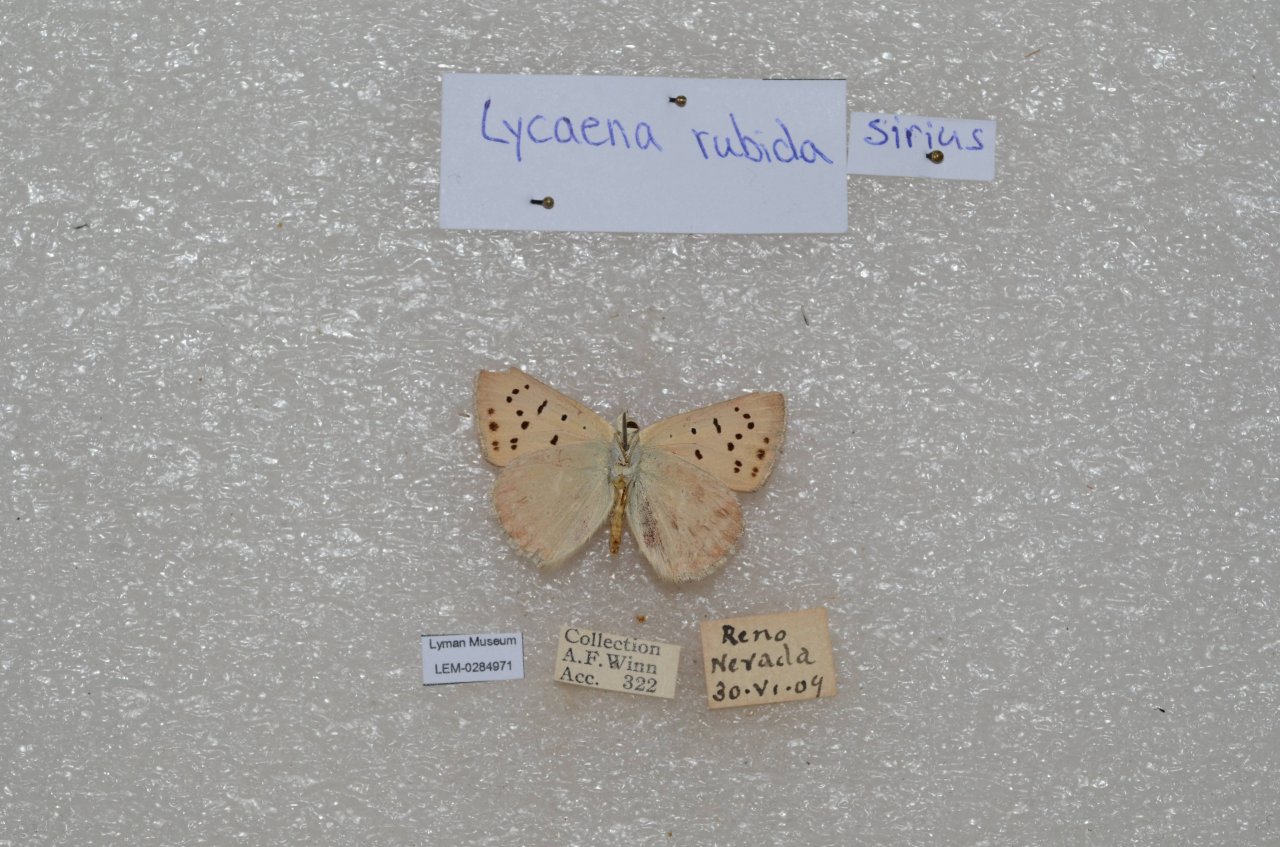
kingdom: Animalia
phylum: Arthropoda
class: Insecta
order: Lepidoptera
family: Sesiidae
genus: Sesia
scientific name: Sesia Lycaena rubidus
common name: Ruddy Copper
